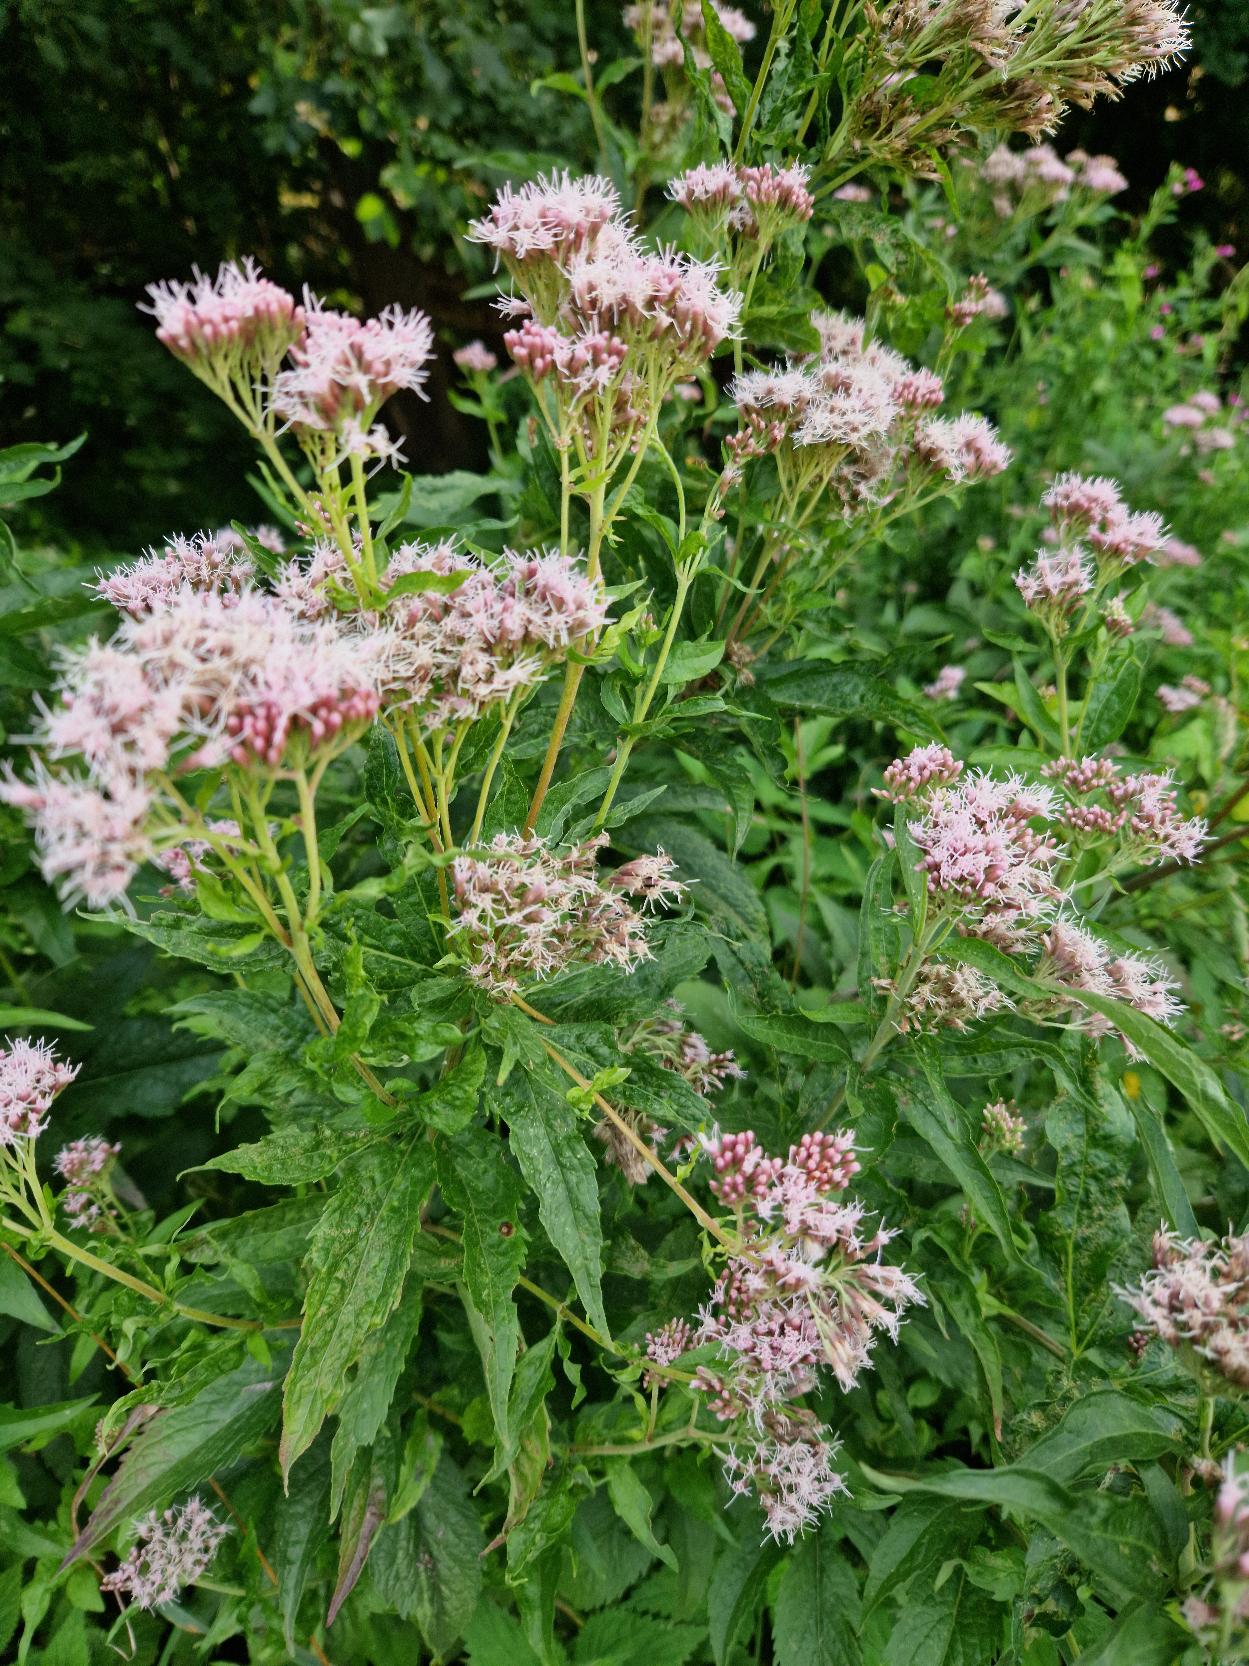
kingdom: Plantae
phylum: Tracheophyta
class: Magnoliopsida
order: Asterales
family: Asteraceae
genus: Eupatorium
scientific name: Eupatorium cannabinum
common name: Hjortetrøst
